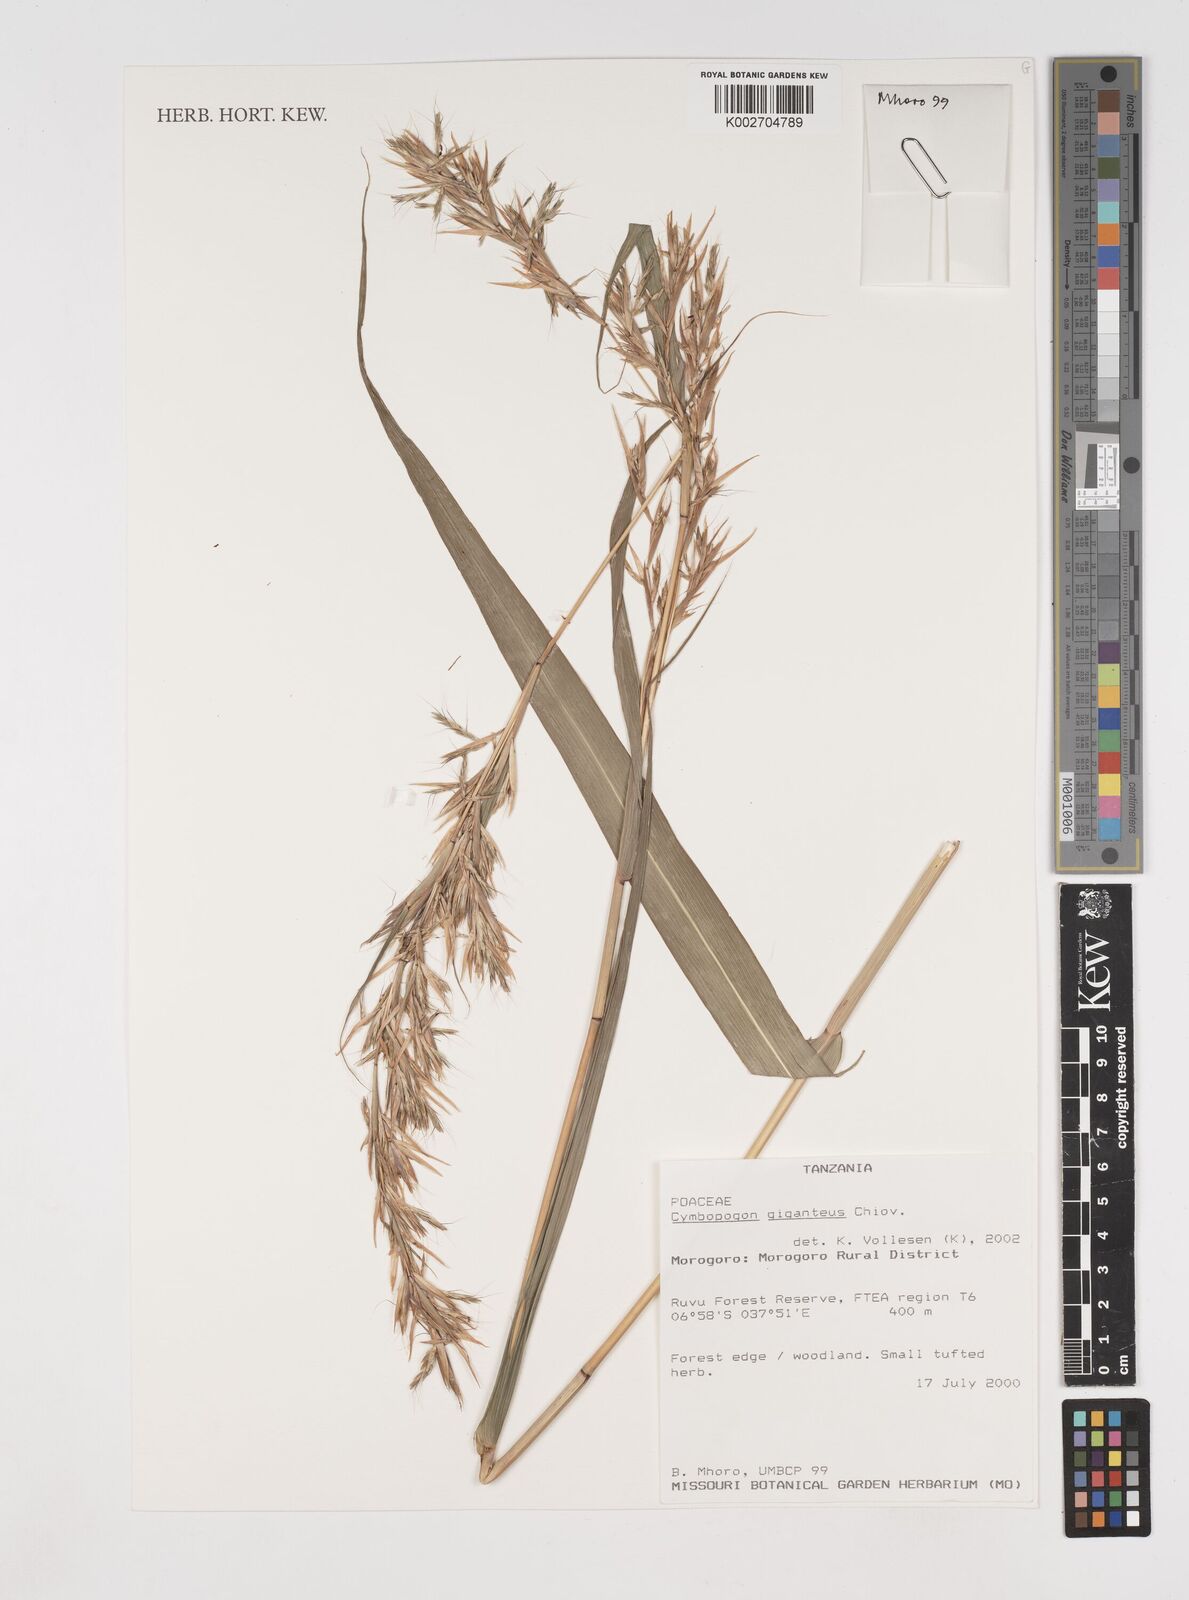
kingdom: Plantae
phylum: Tracheophyta
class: Liliopsida
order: Poales
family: Poaceae
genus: Cymbopogon
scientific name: Cymbopogon giganteus
